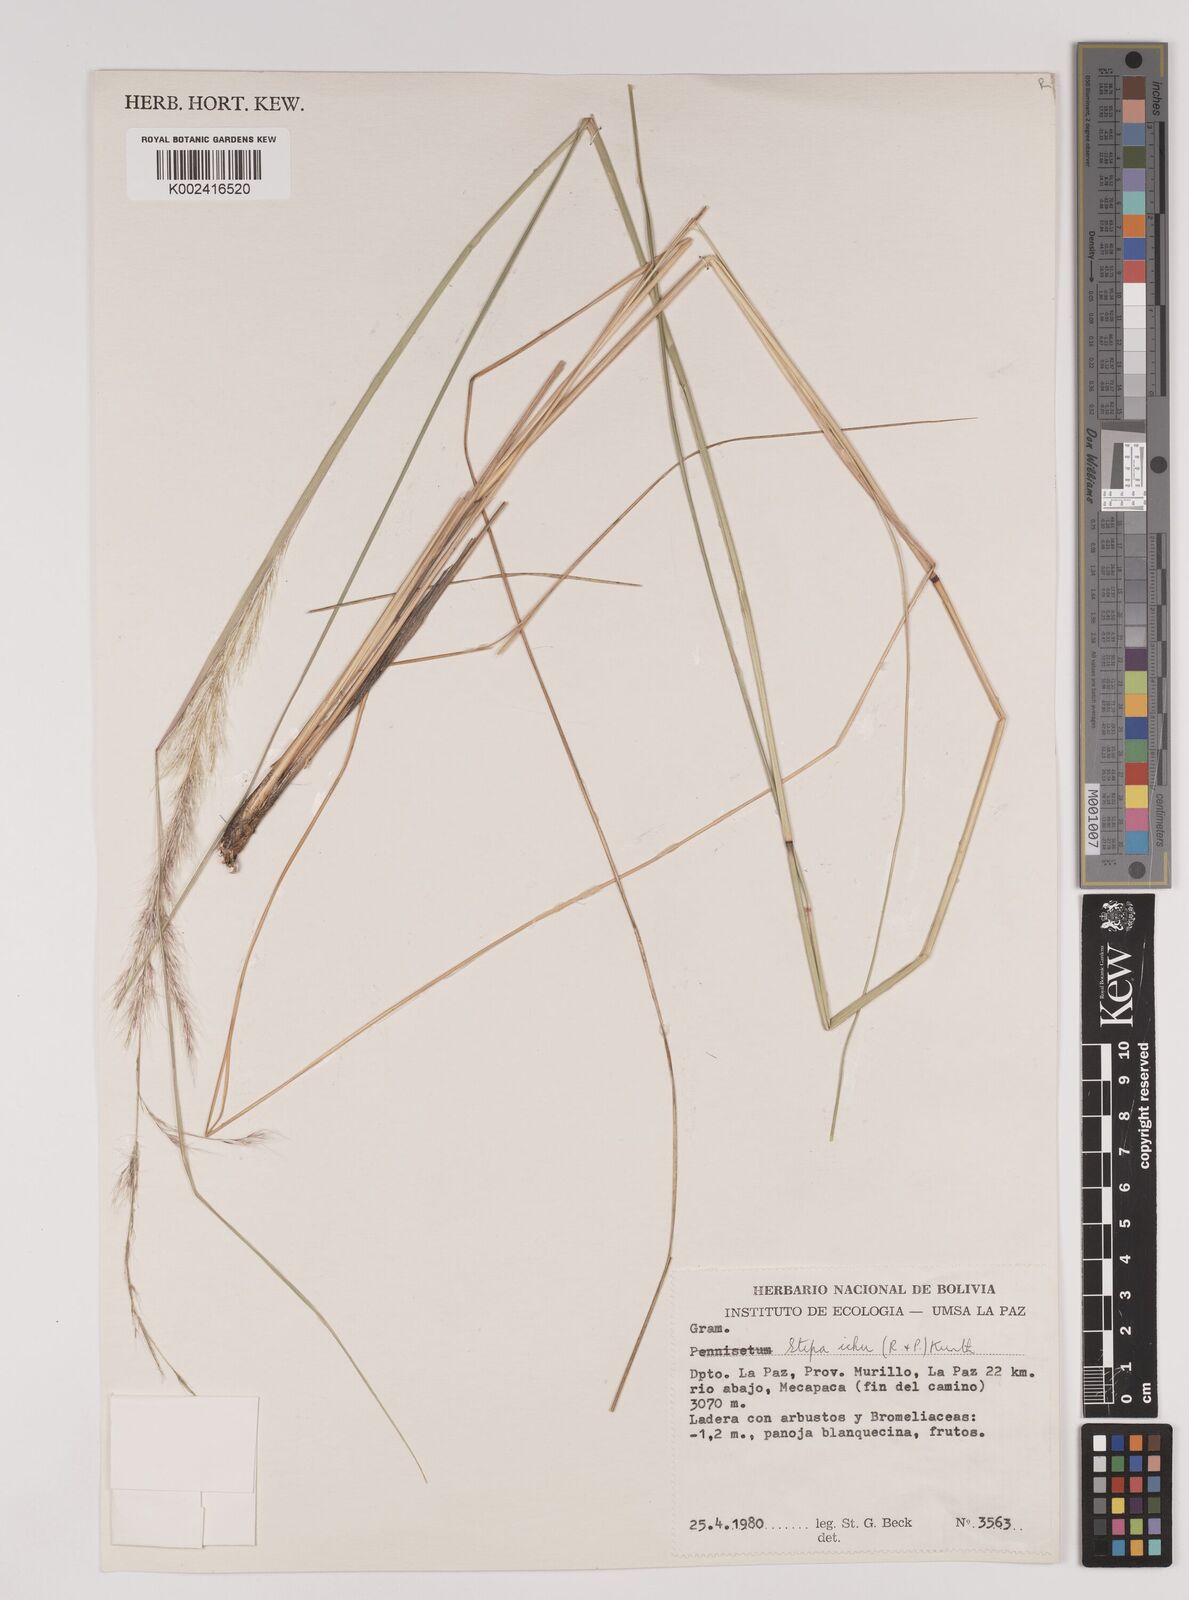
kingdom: Plantae
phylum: Tracheophyta
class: Liliopsida
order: Poales
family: Poaceae
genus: Jarava
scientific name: Jarava ichu
